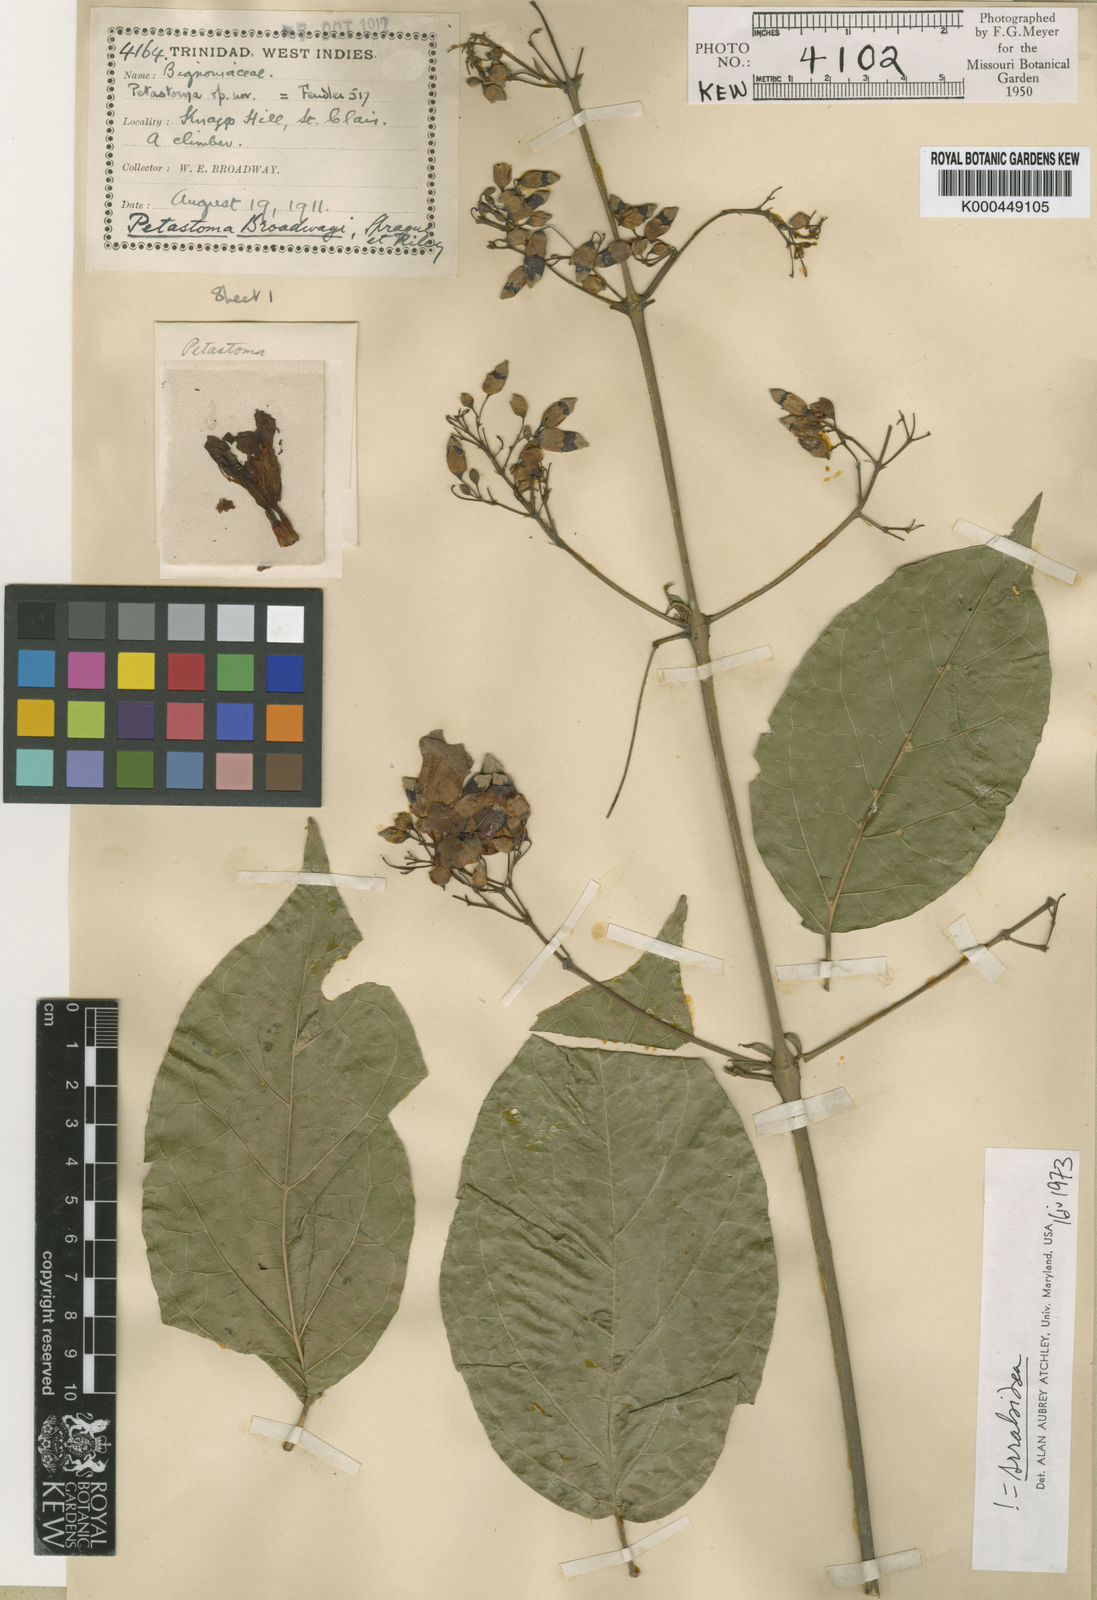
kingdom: Plantae
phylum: Tracheophyta
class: Magnoliopsida
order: Lamiales
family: Bignoniaceae
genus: Fridericia
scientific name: Fridericia patellifera
